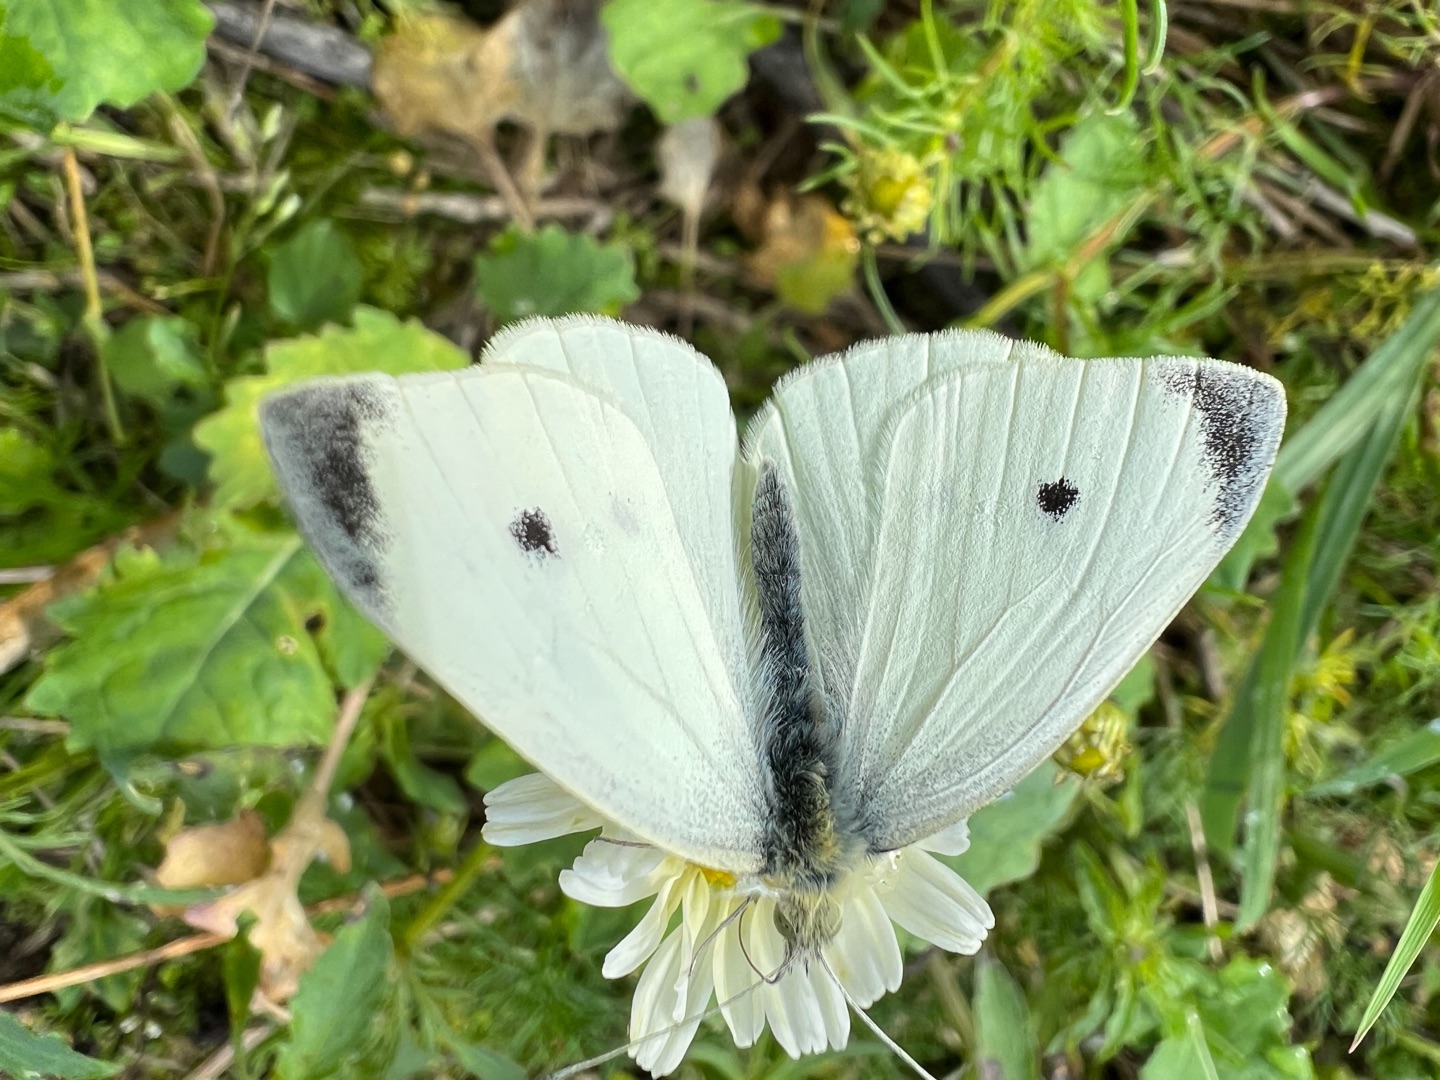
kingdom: Animalia
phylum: Arthropoda
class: Insecta
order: Lepidoptera
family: Pieridae
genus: Pieris
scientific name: Pieris rapae
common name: Lille kålsommerfugl
